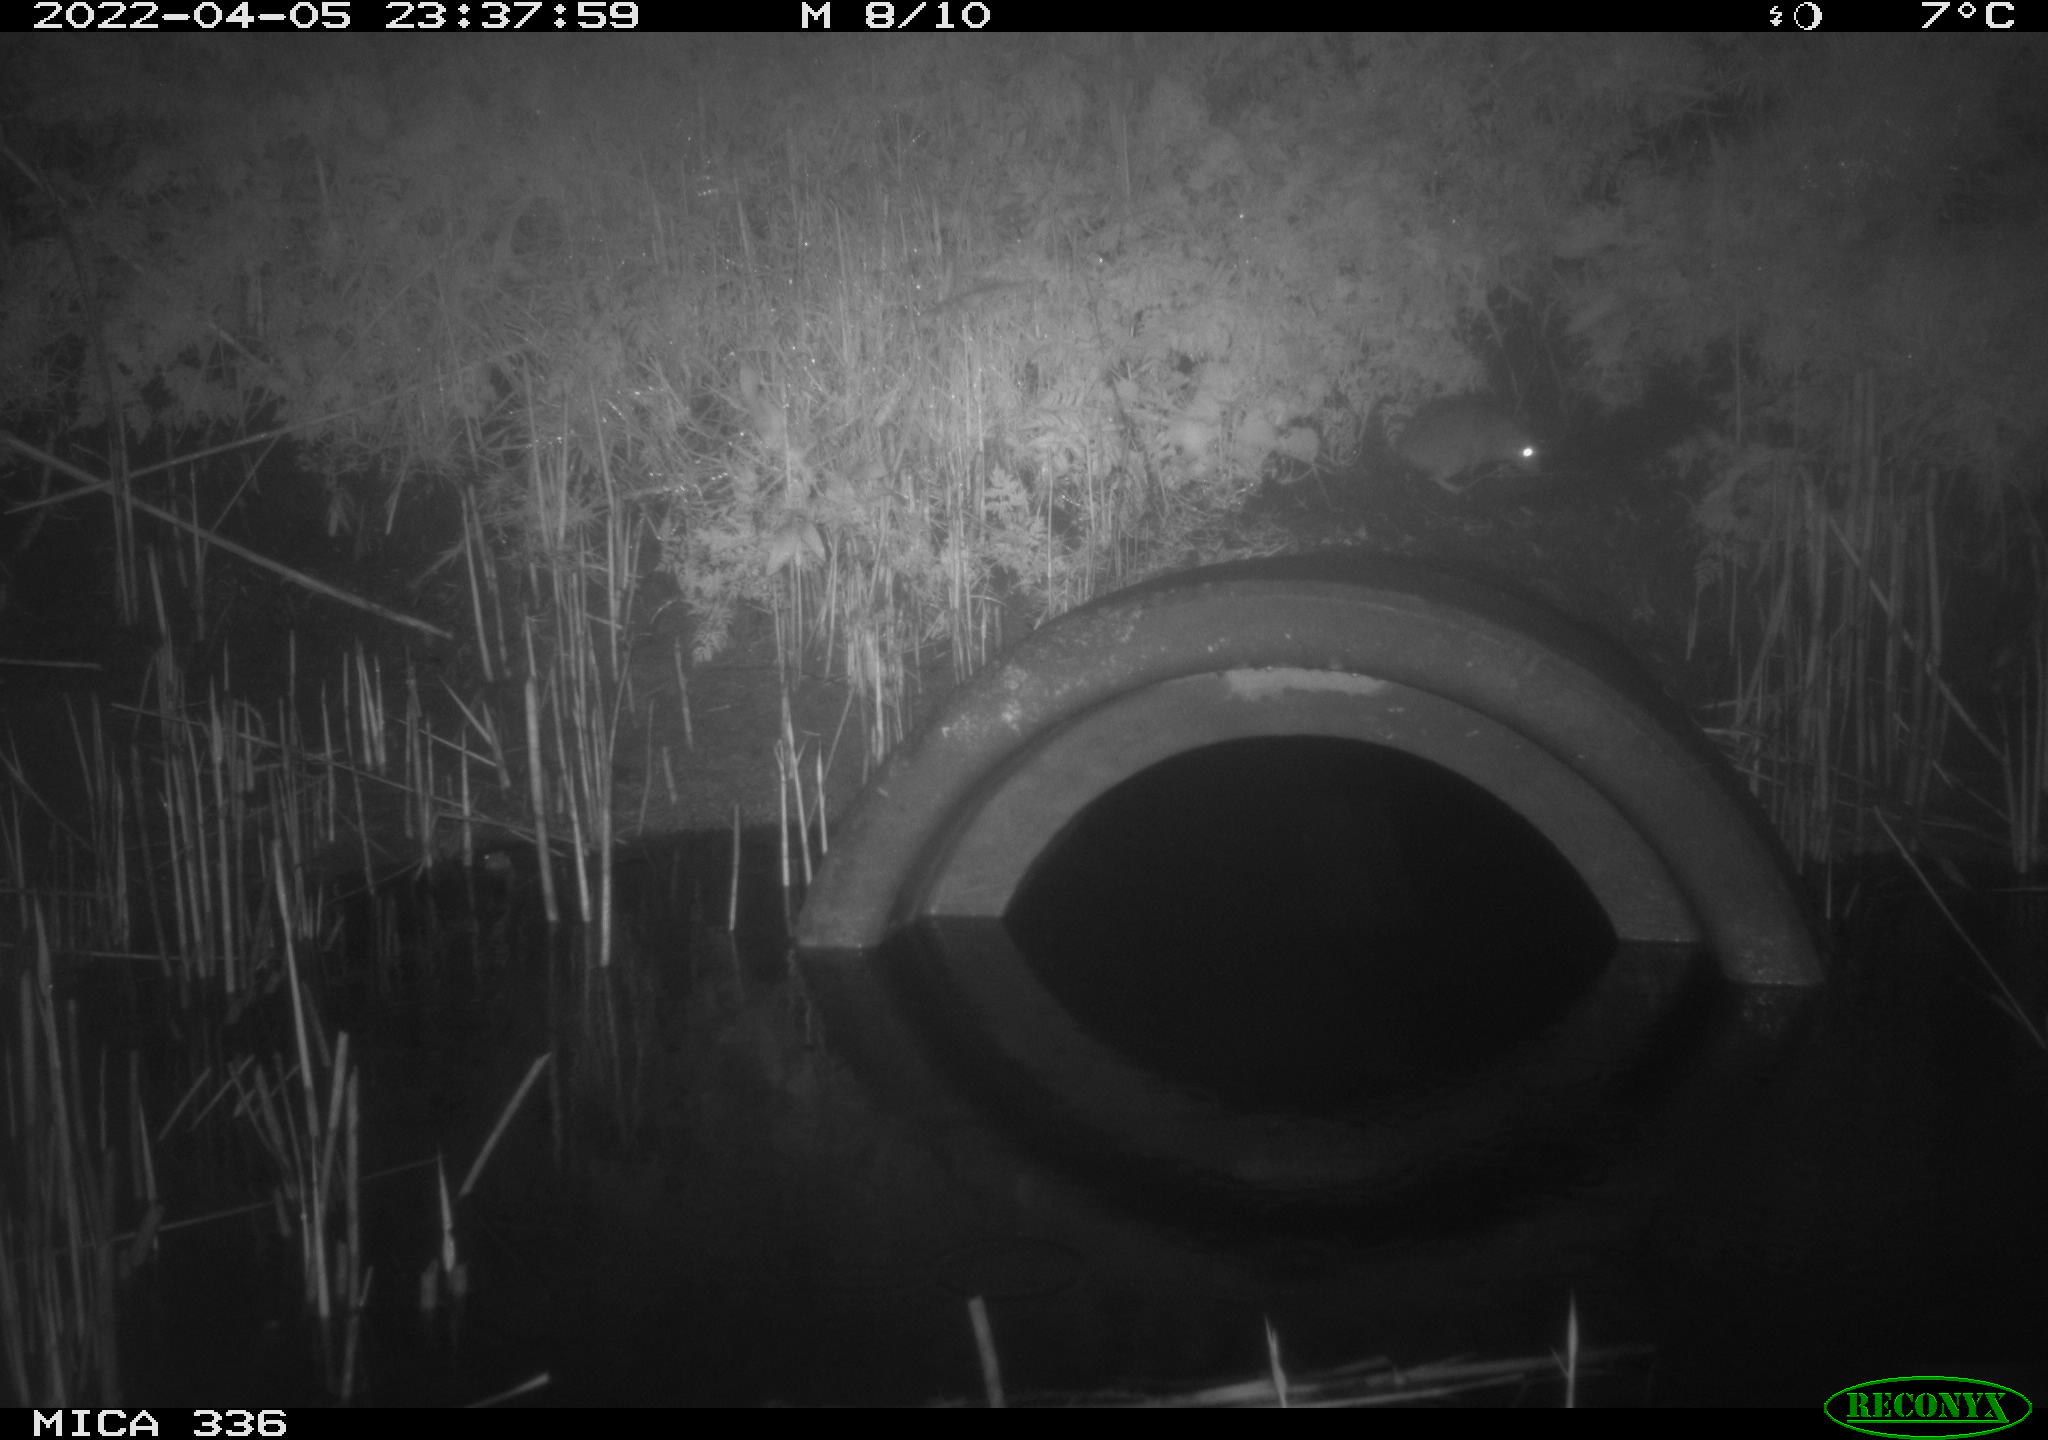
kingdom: Animalia
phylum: Chordata
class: Mammalia
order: Rodentia
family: Muridae
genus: Rattus
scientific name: Rattus norvegicus
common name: Brown rat
